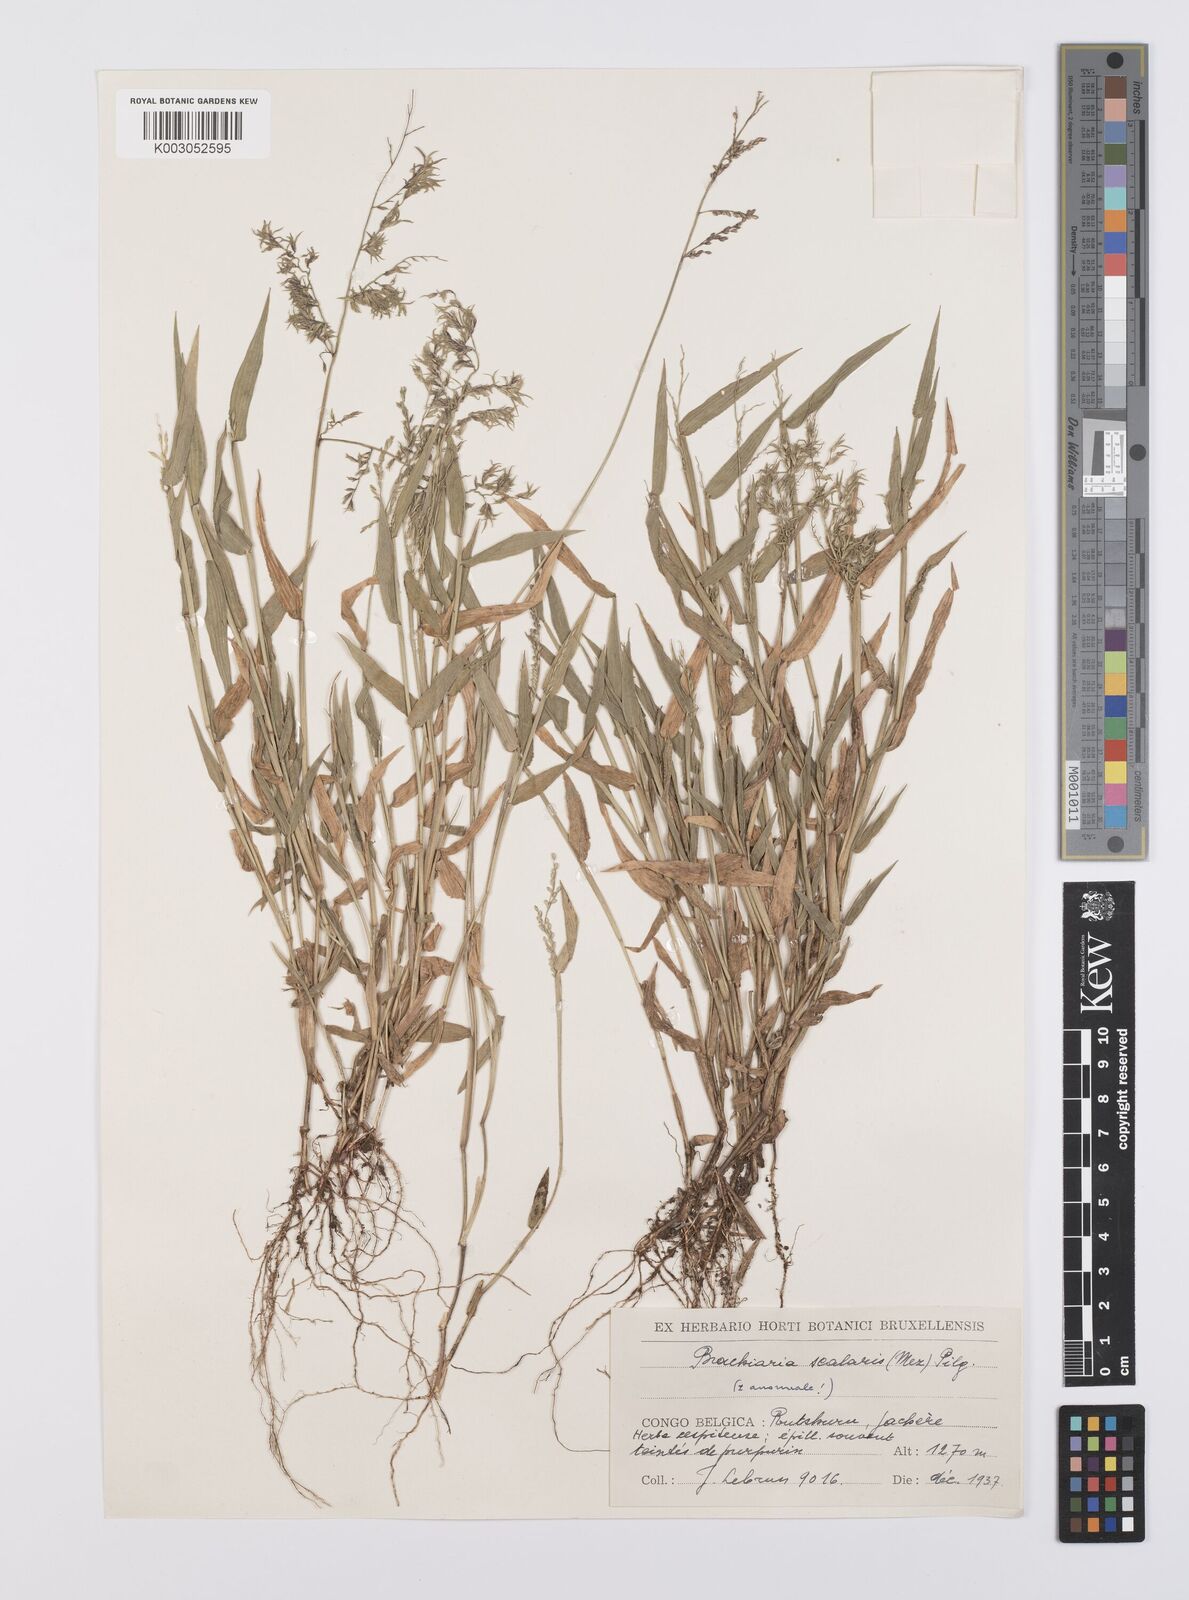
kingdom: Plantae
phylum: Tracheophyta
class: Liliopsida
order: Poales
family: Poaceae
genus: Urochloa
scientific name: Urochloa comata
